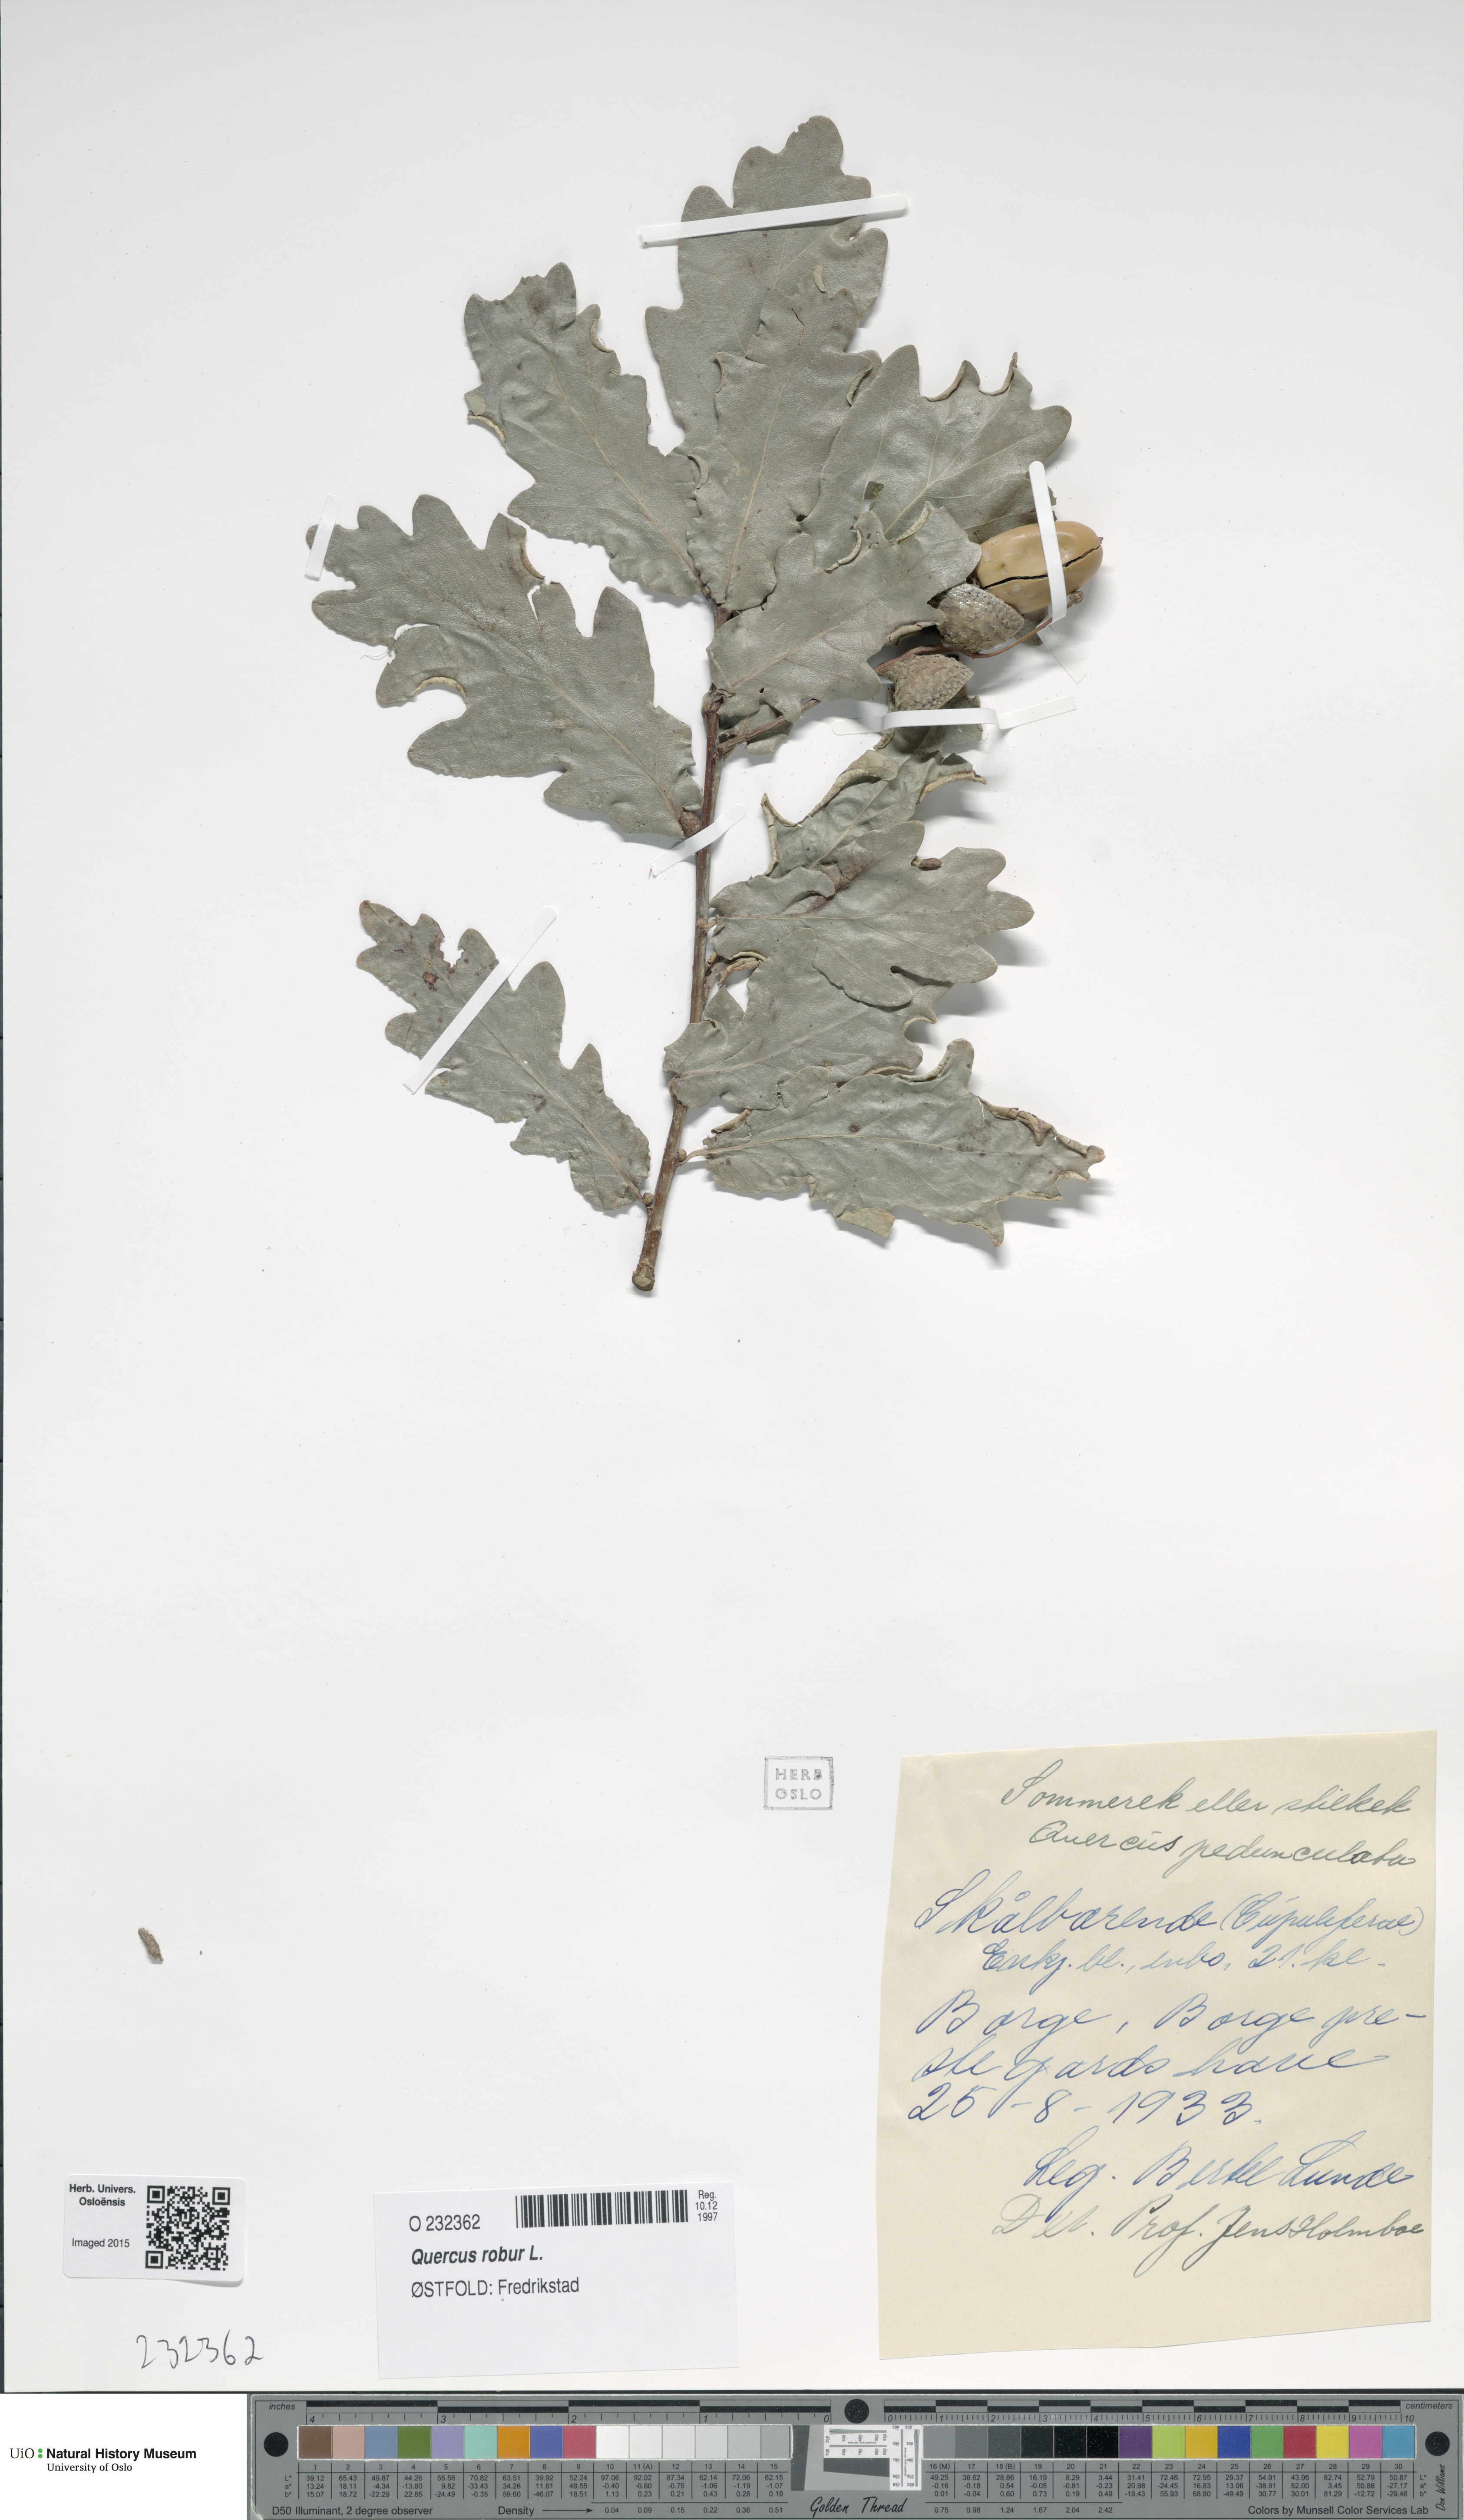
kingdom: Plantae
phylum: Tracheophyta
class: Magnoliopsida
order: Fagales
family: Fagaceae
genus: Quercus
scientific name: Quercus robur
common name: Pedunculate oak
